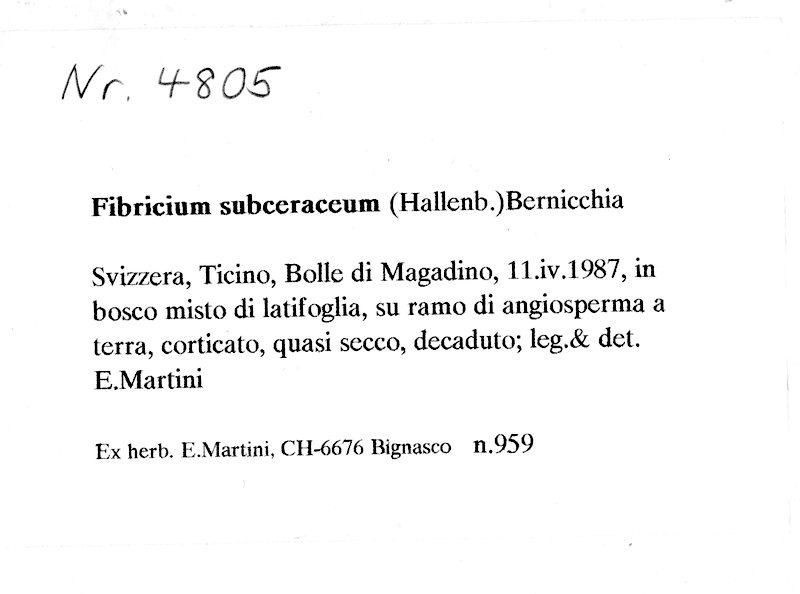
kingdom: Fungi
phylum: Basidiomycota
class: Agaricomycetes
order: Hymenochaetales
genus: Fibricium
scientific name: Fibricium subceraceum
